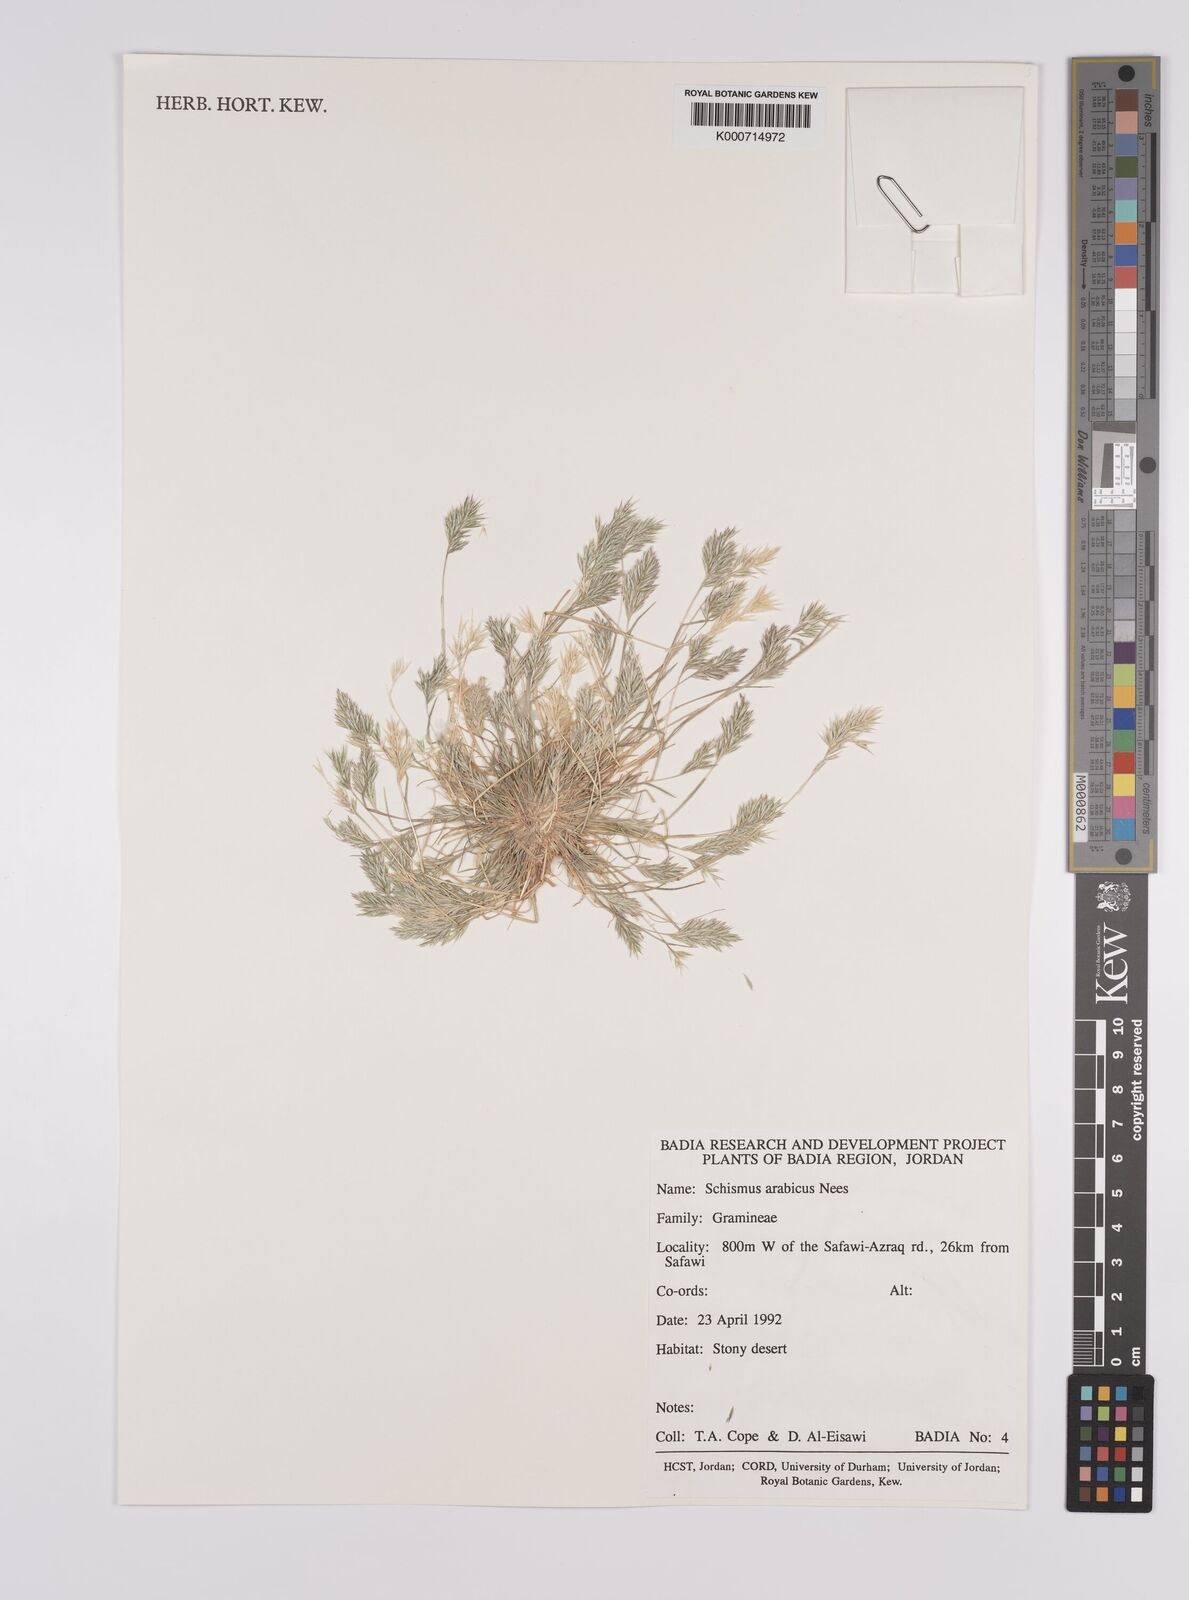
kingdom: Plantae
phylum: Tracheophyta
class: Liliopsida
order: Poales
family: Poaceae
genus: Schismus
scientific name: Schismus arabicus
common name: Arabian schismus
